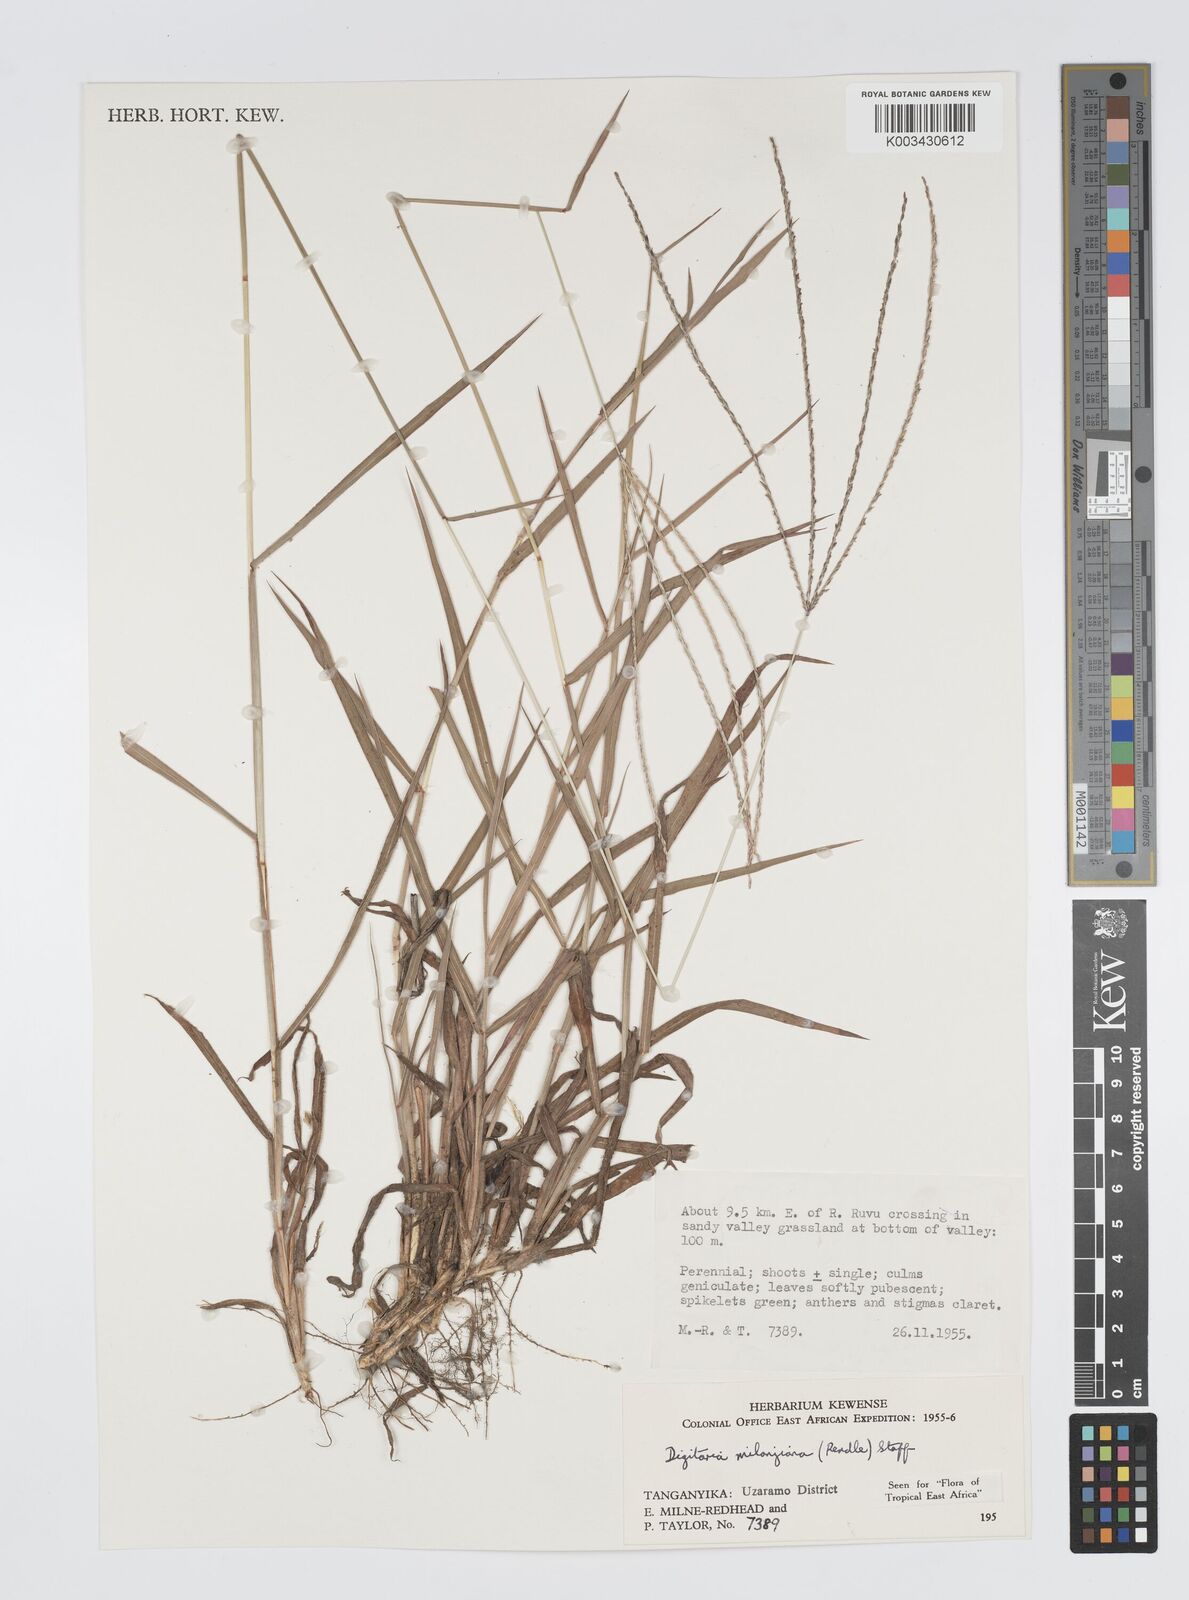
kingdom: Plantae
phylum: Tracheophyta
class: Liliopsida
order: Poales
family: Poaceae
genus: Digitaria
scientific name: Digitaria milanjiana
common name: Madagascar crabgrass
